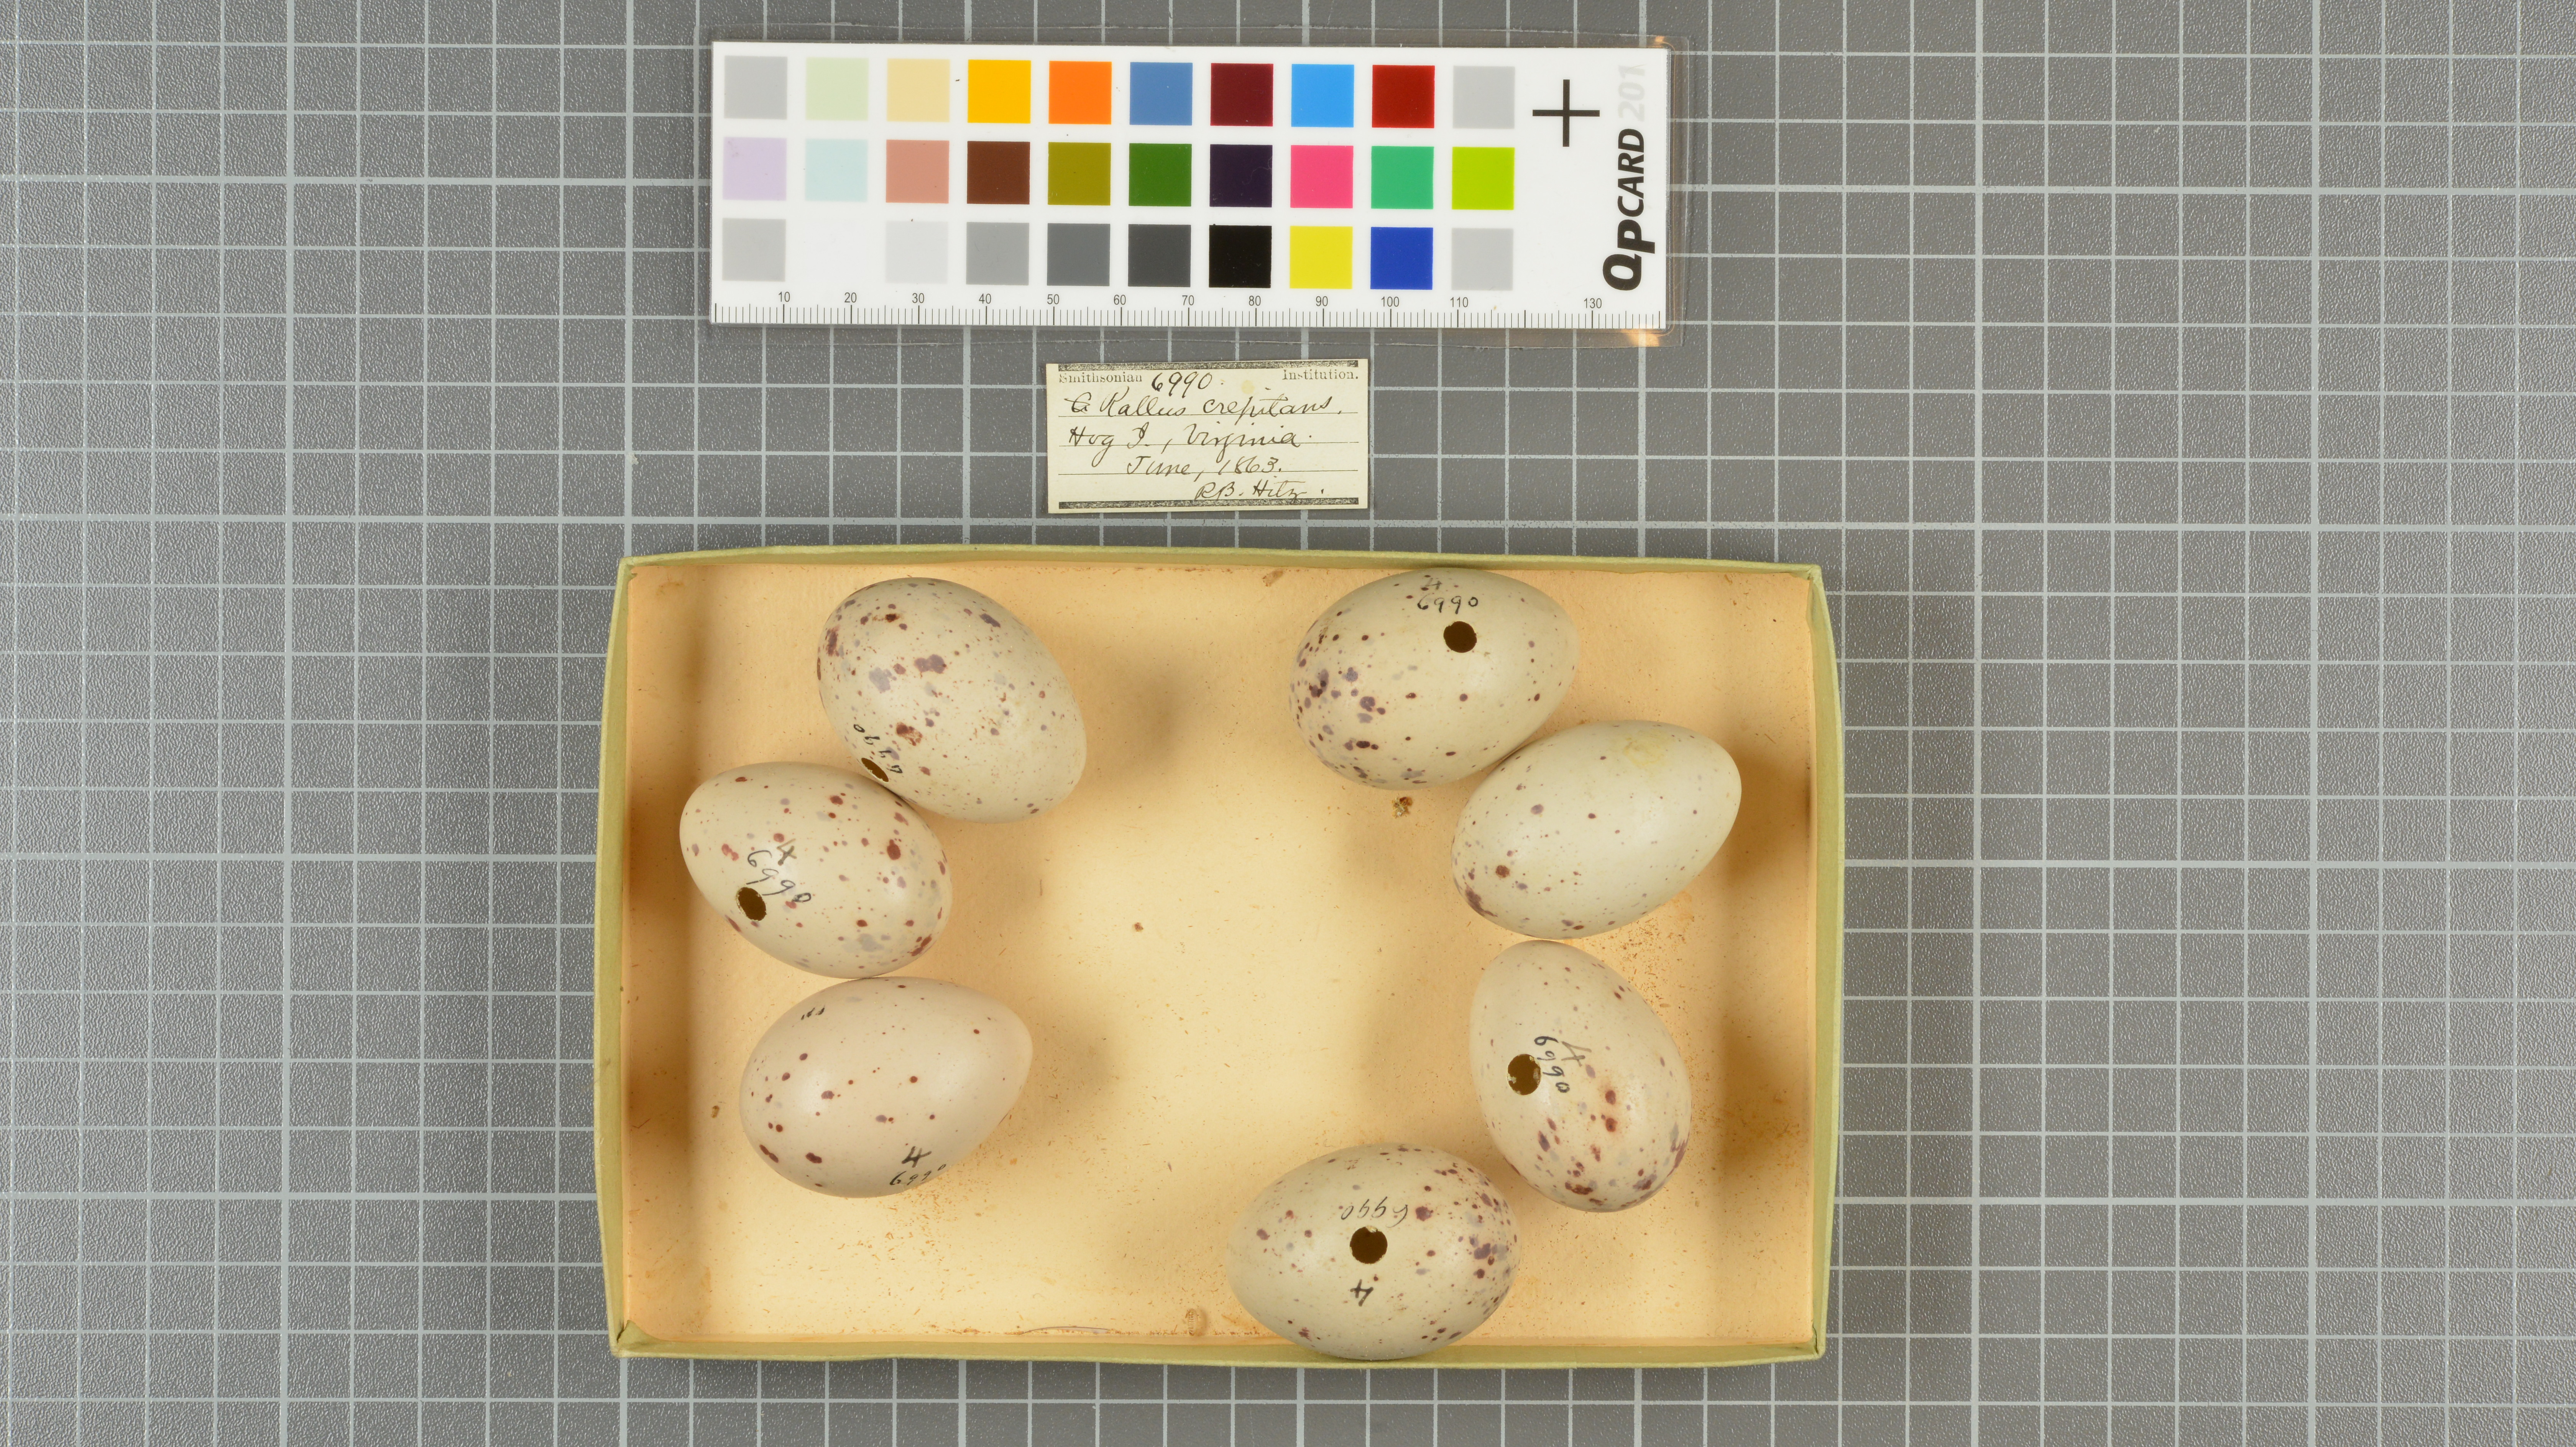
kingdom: Animalia
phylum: Chordata
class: Aves
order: Gruiformes
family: Rallidae
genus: Rallus
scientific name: Rallus crepitans
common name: Clapper rail
